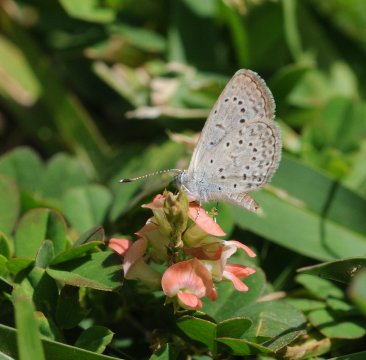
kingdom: Animalia
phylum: Arthropoda
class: Insecta
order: Lepidoptera
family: Lycaenidae
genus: Zizeeria
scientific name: Zizeeria knysna
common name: Dark Grass Blue
